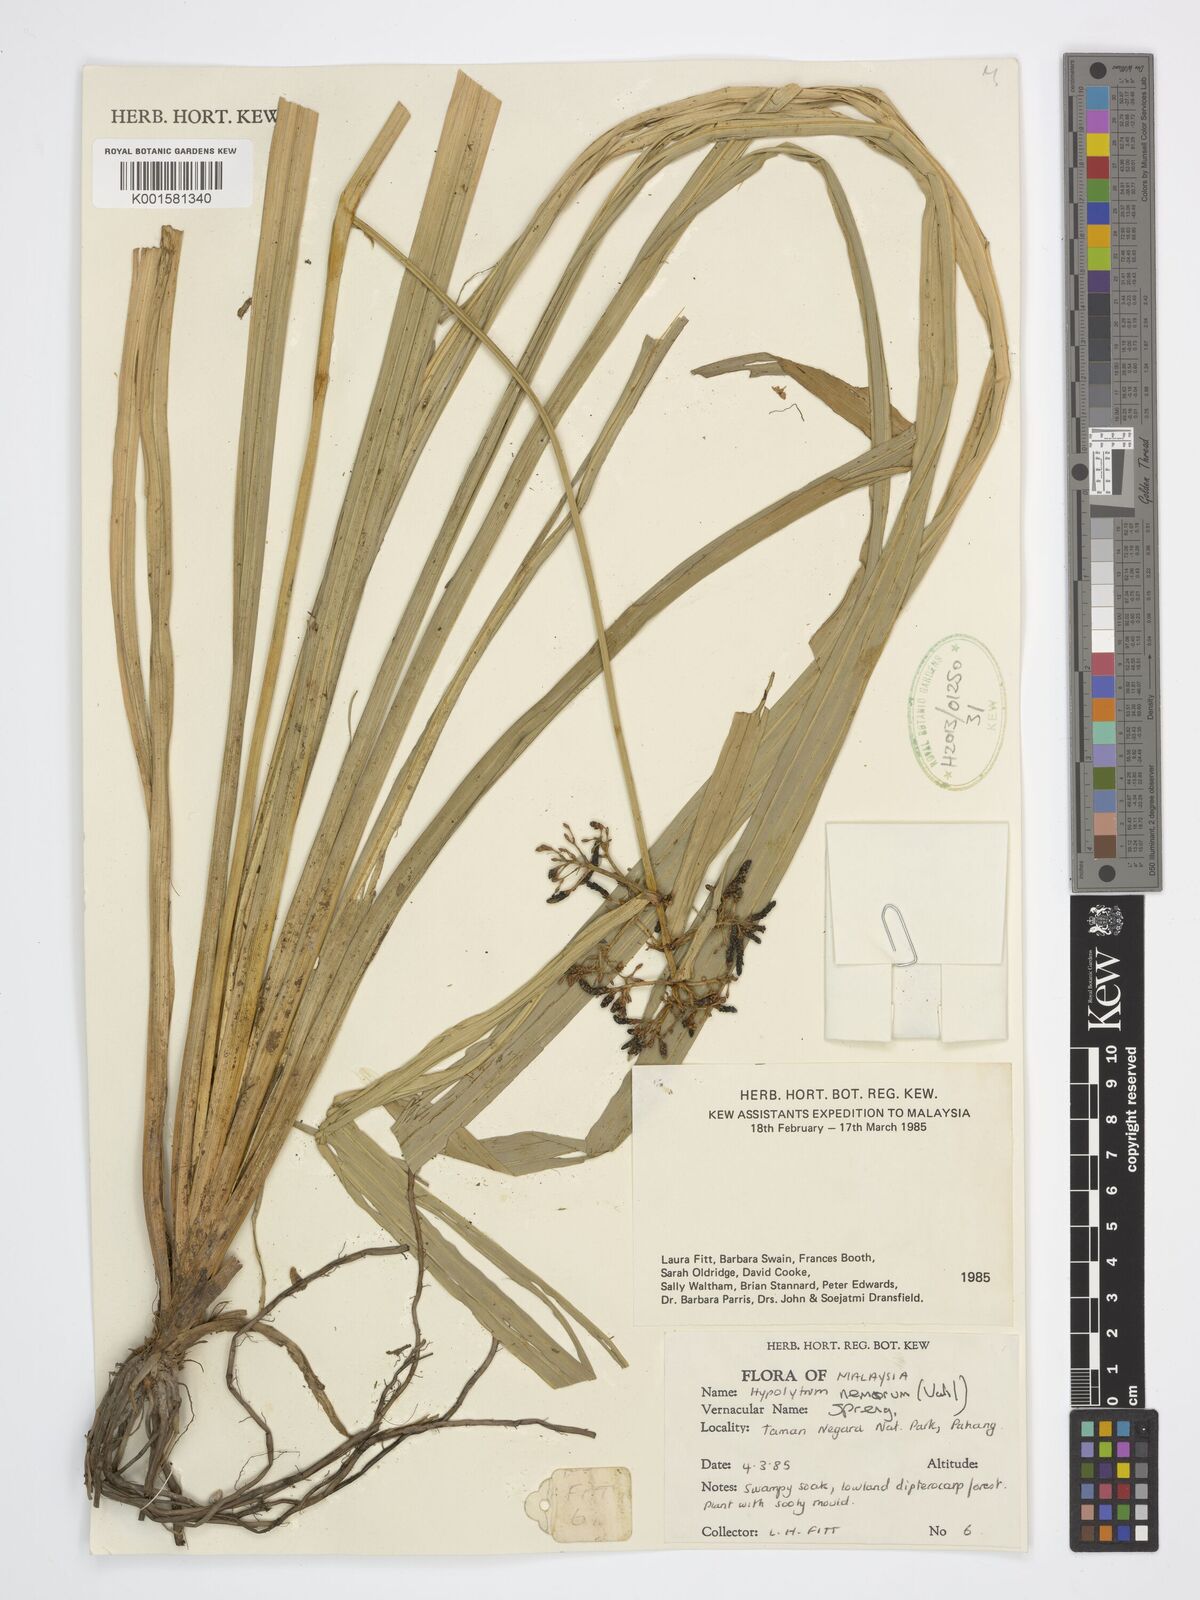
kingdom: Plantae
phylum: Tracheophyta
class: Liliopsida
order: Poales
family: Cyperaceae
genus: Hypolytrum
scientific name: Hypolytrum nemorum
